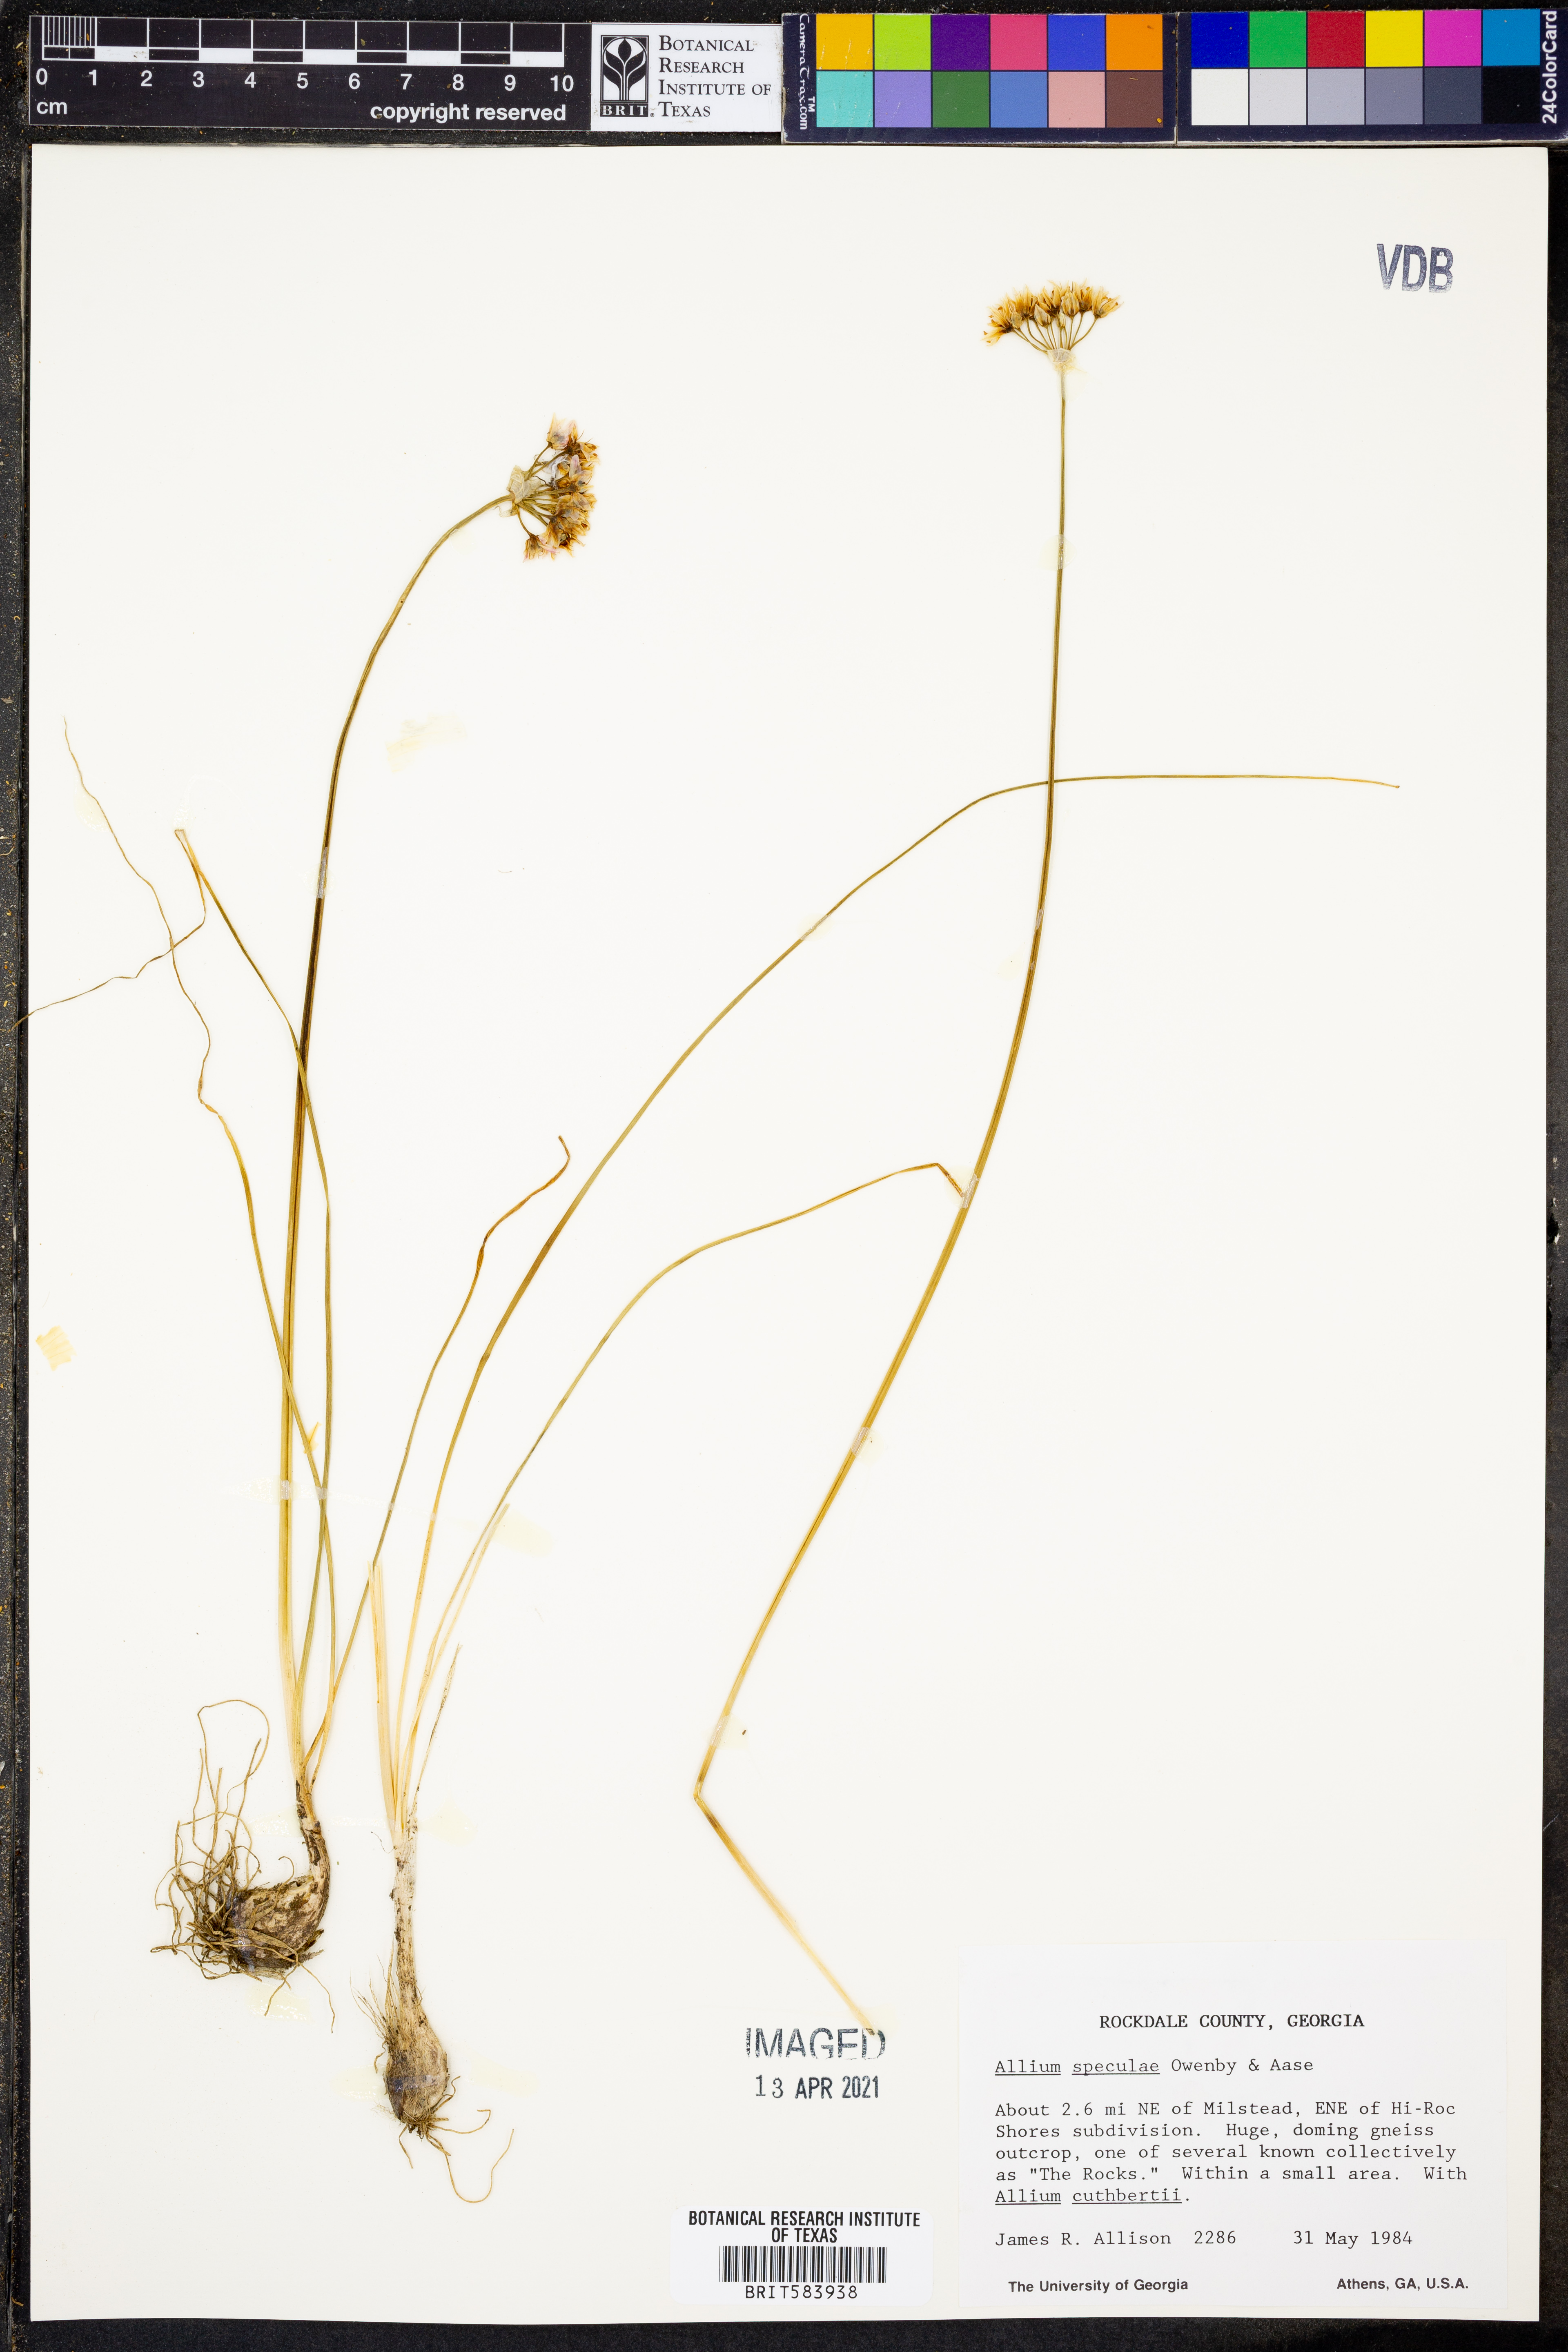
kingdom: Plantae
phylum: Tracheophyta
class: Liliopsida
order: Asparagales
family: Amaryllidaceae
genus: Allium
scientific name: Allium speculae
